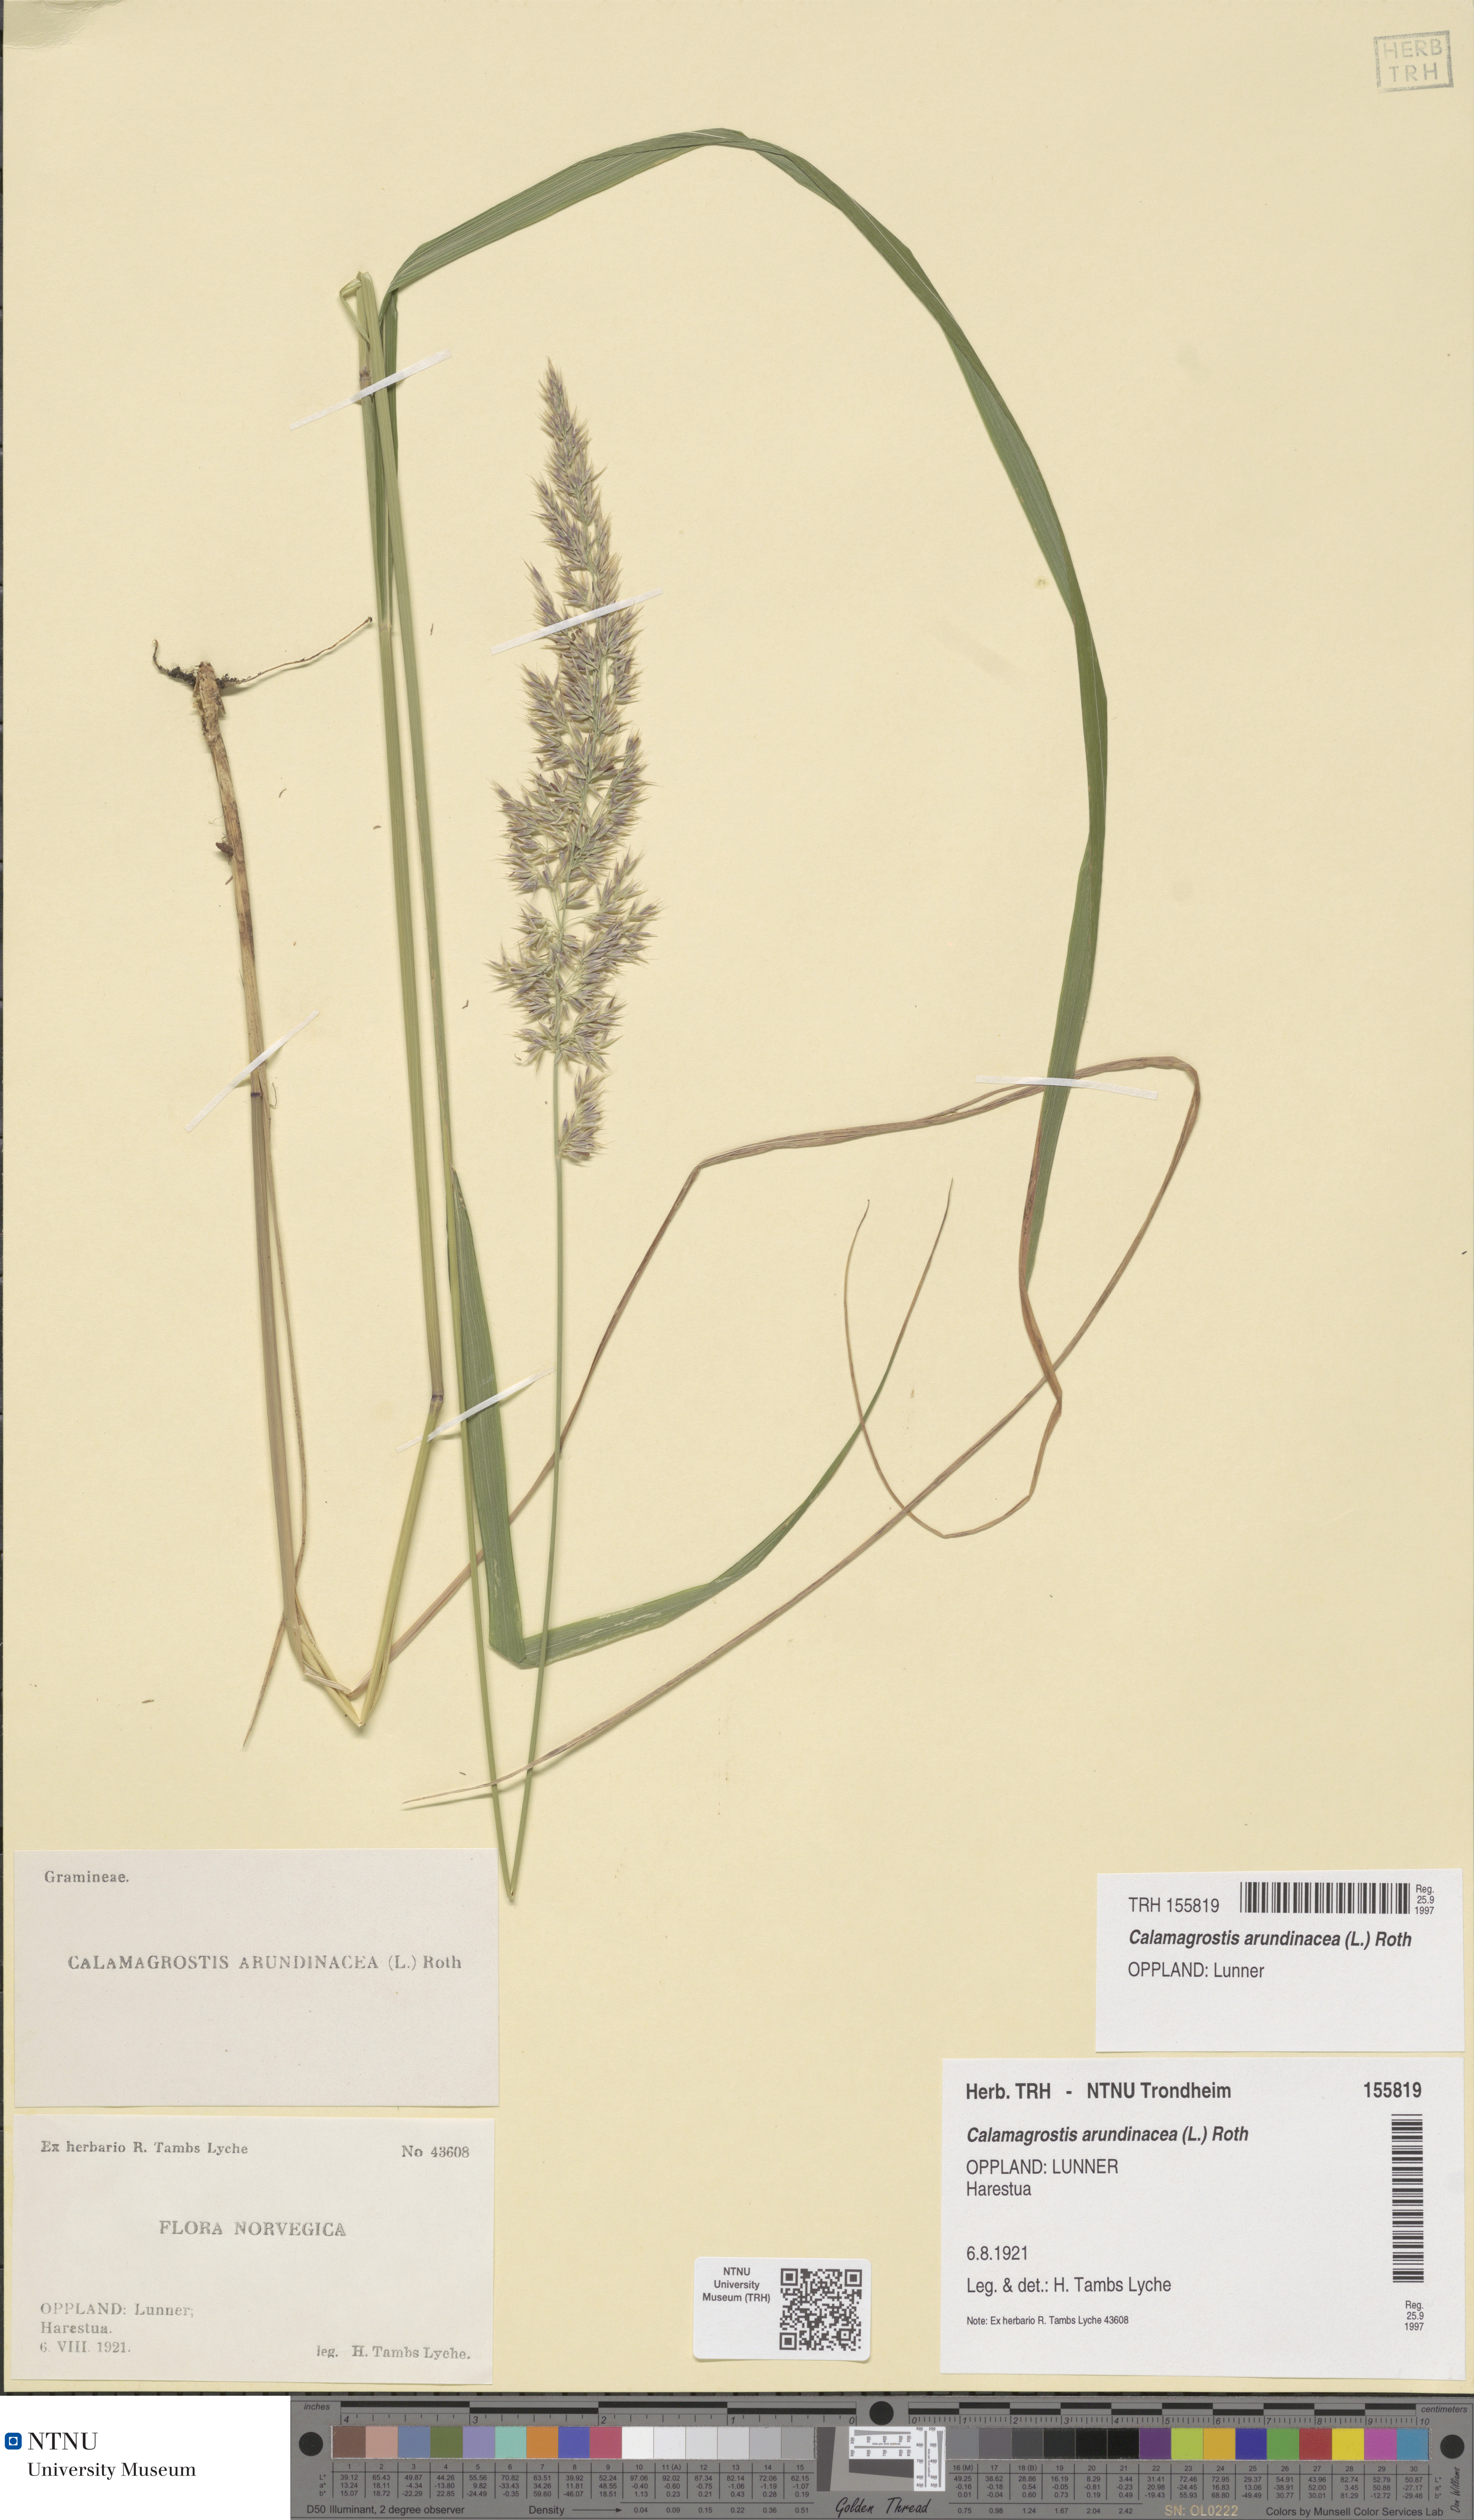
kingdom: Plantae
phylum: Tracheophyta
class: Liliopsida
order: Poales
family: Poaceae
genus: Calamagrostis
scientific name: Calamagrostis arundinacea
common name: Metskastik
